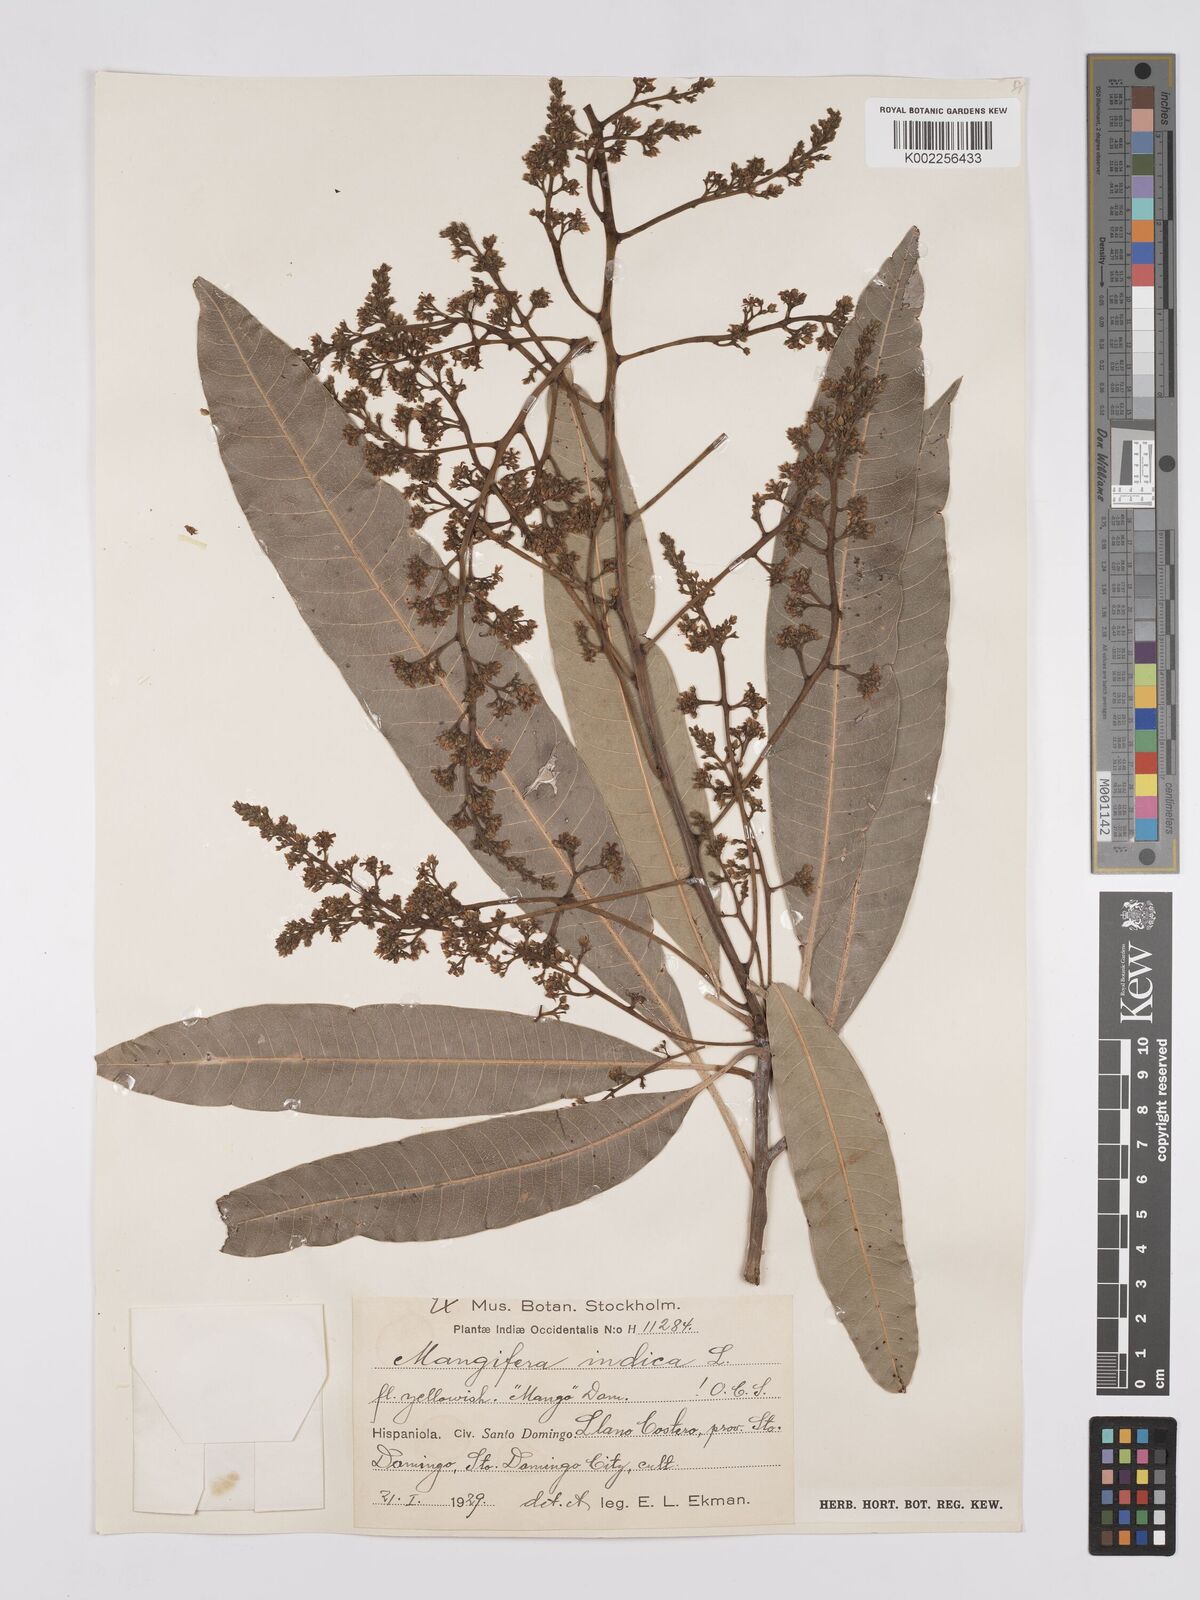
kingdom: Plantae
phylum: Tracheophyta
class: Magnoliopsida
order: Sapindales
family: Anacardiaceae
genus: Mangifera
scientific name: Mangifera indica
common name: Mango
